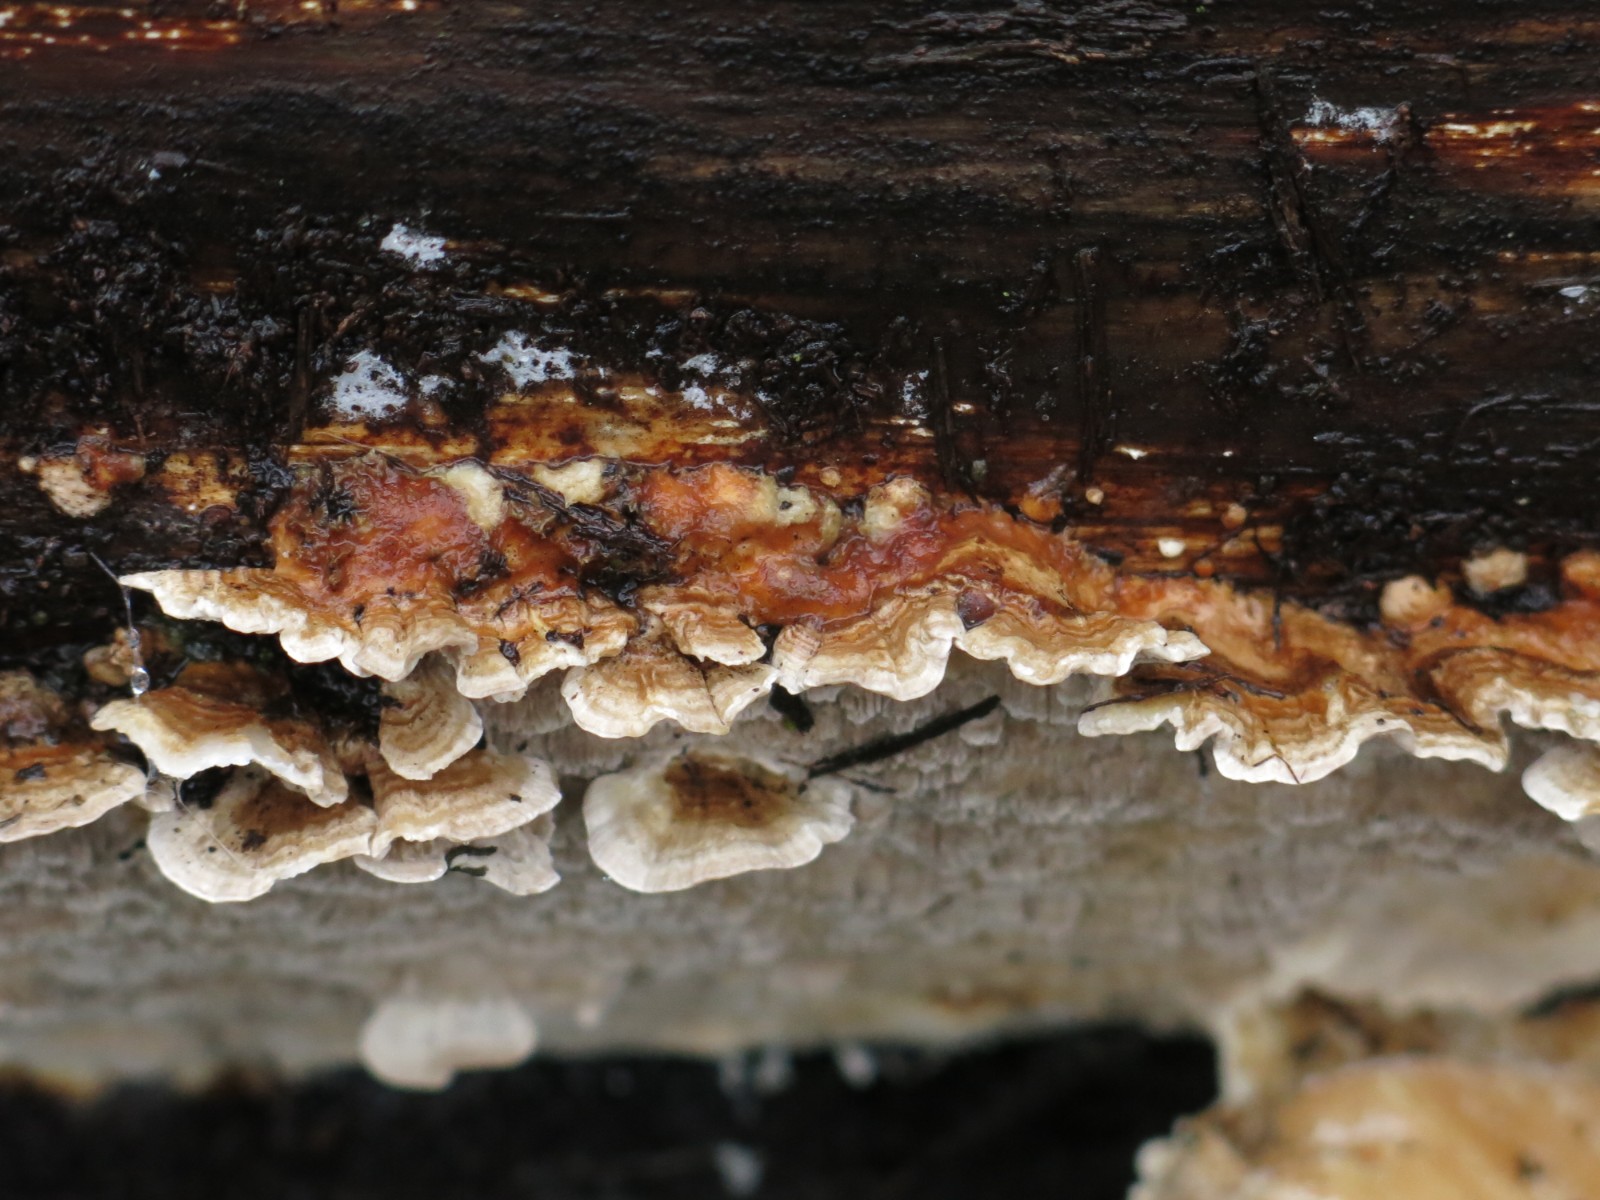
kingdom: Fungi
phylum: Basidiomycota
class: Agaricomycetes
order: Polyporales
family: Polyporaceae
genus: Trametes
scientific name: Trametes versicolor
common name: broget læderporesvamp
